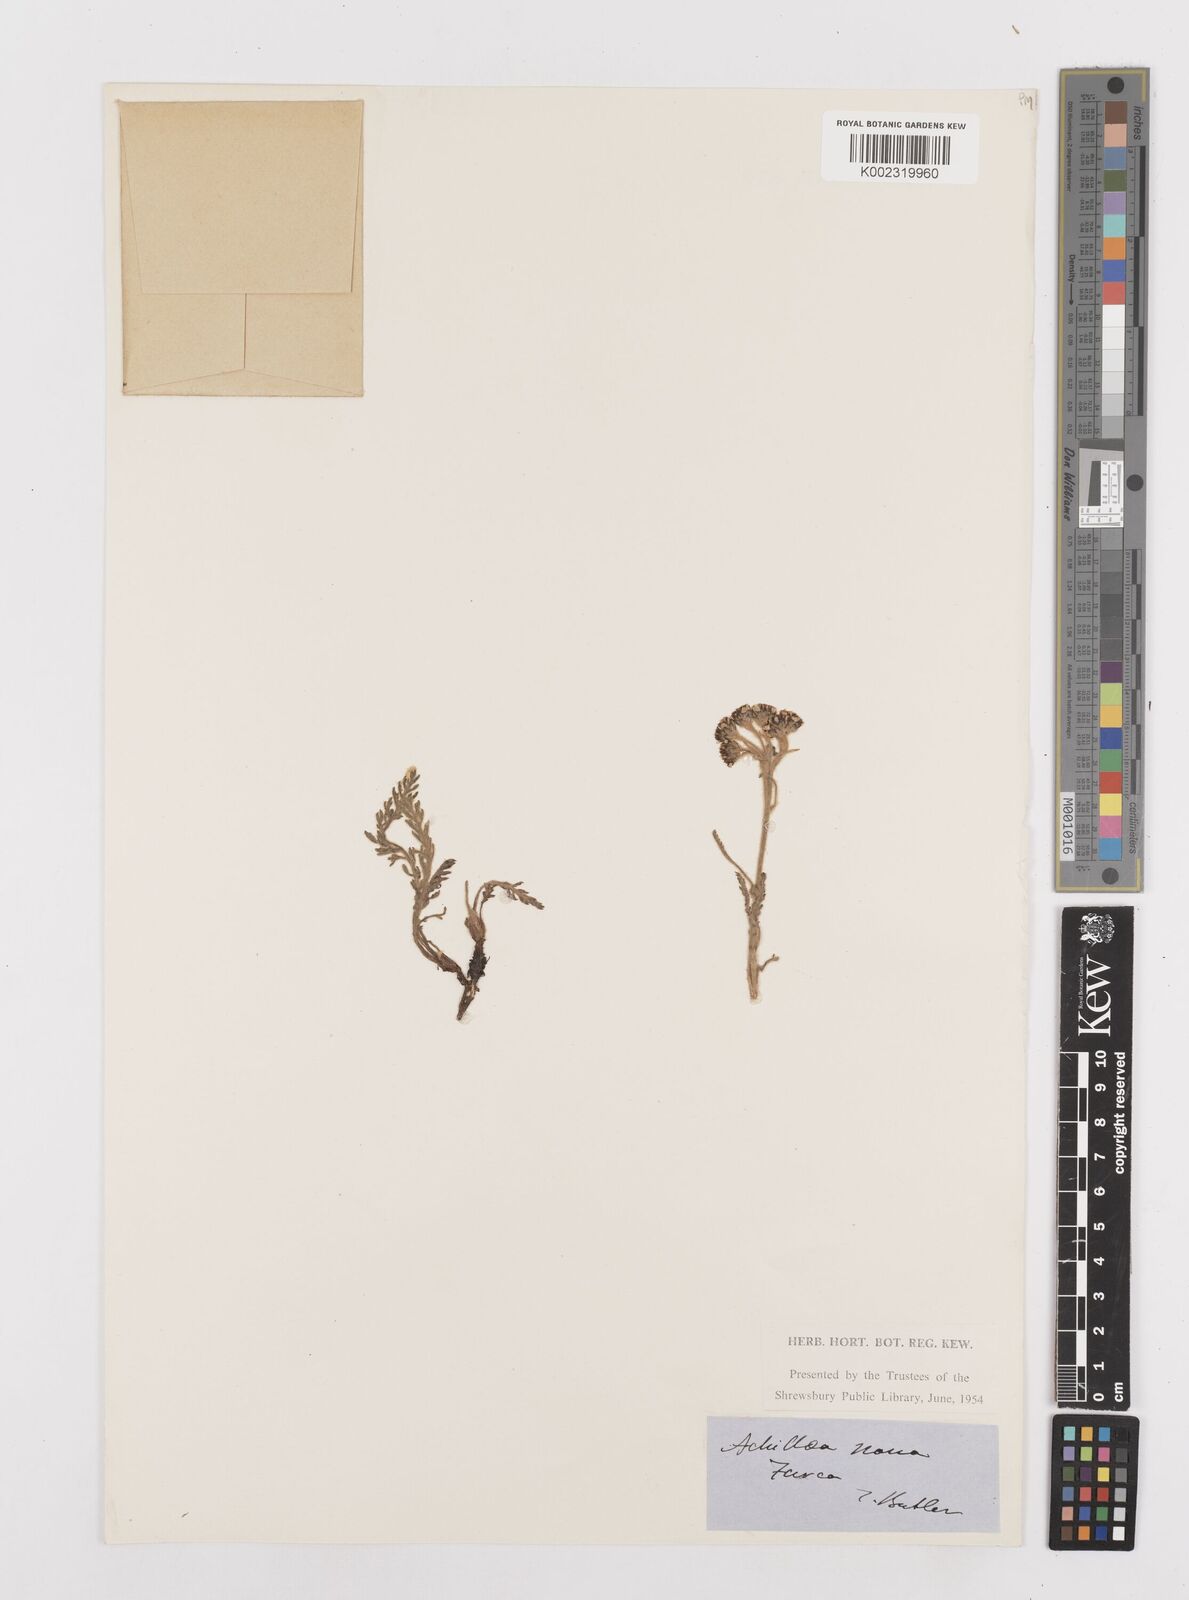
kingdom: Plantae
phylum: Tracheophyta
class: Magnoliopsida
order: Asterales
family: Asteraceae
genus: Achillea
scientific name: Achillea nana
